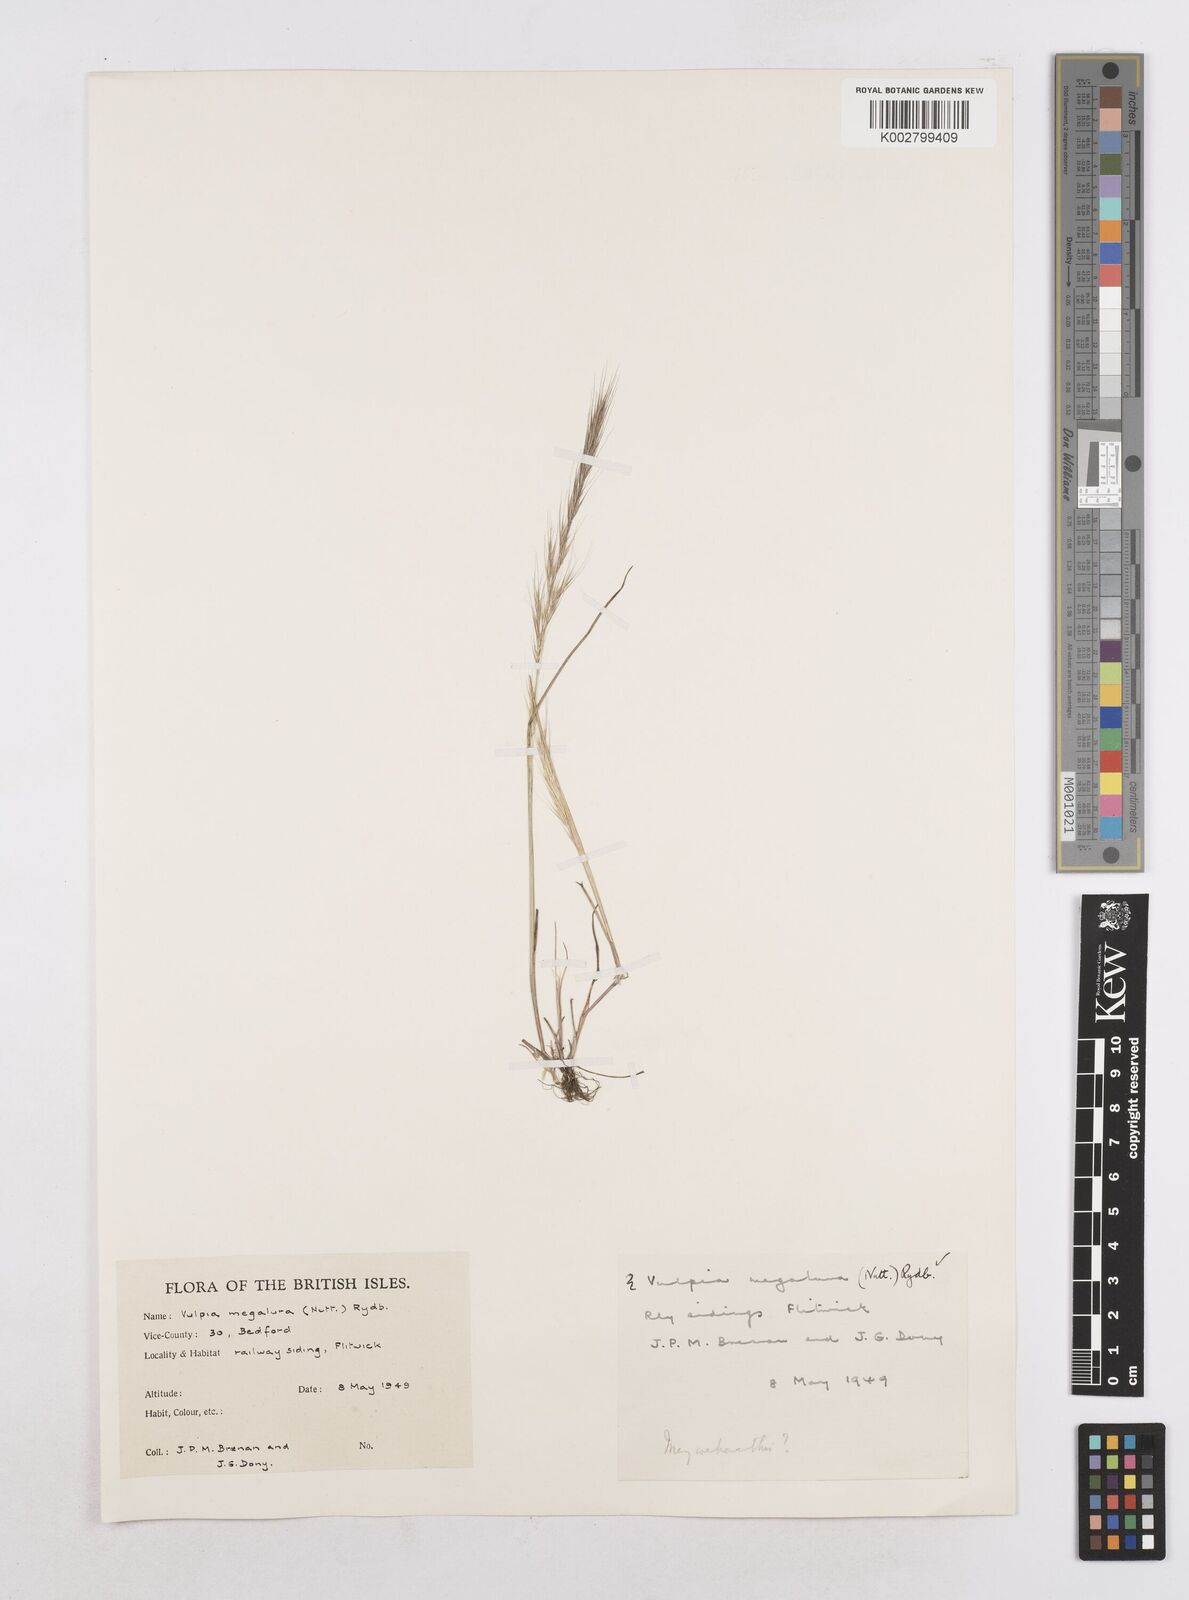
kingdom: Plantae
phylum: Tracheophyta
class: Liliopsida
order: Poales
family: Poaceae
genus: Festuca
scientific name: Festuca myuros
